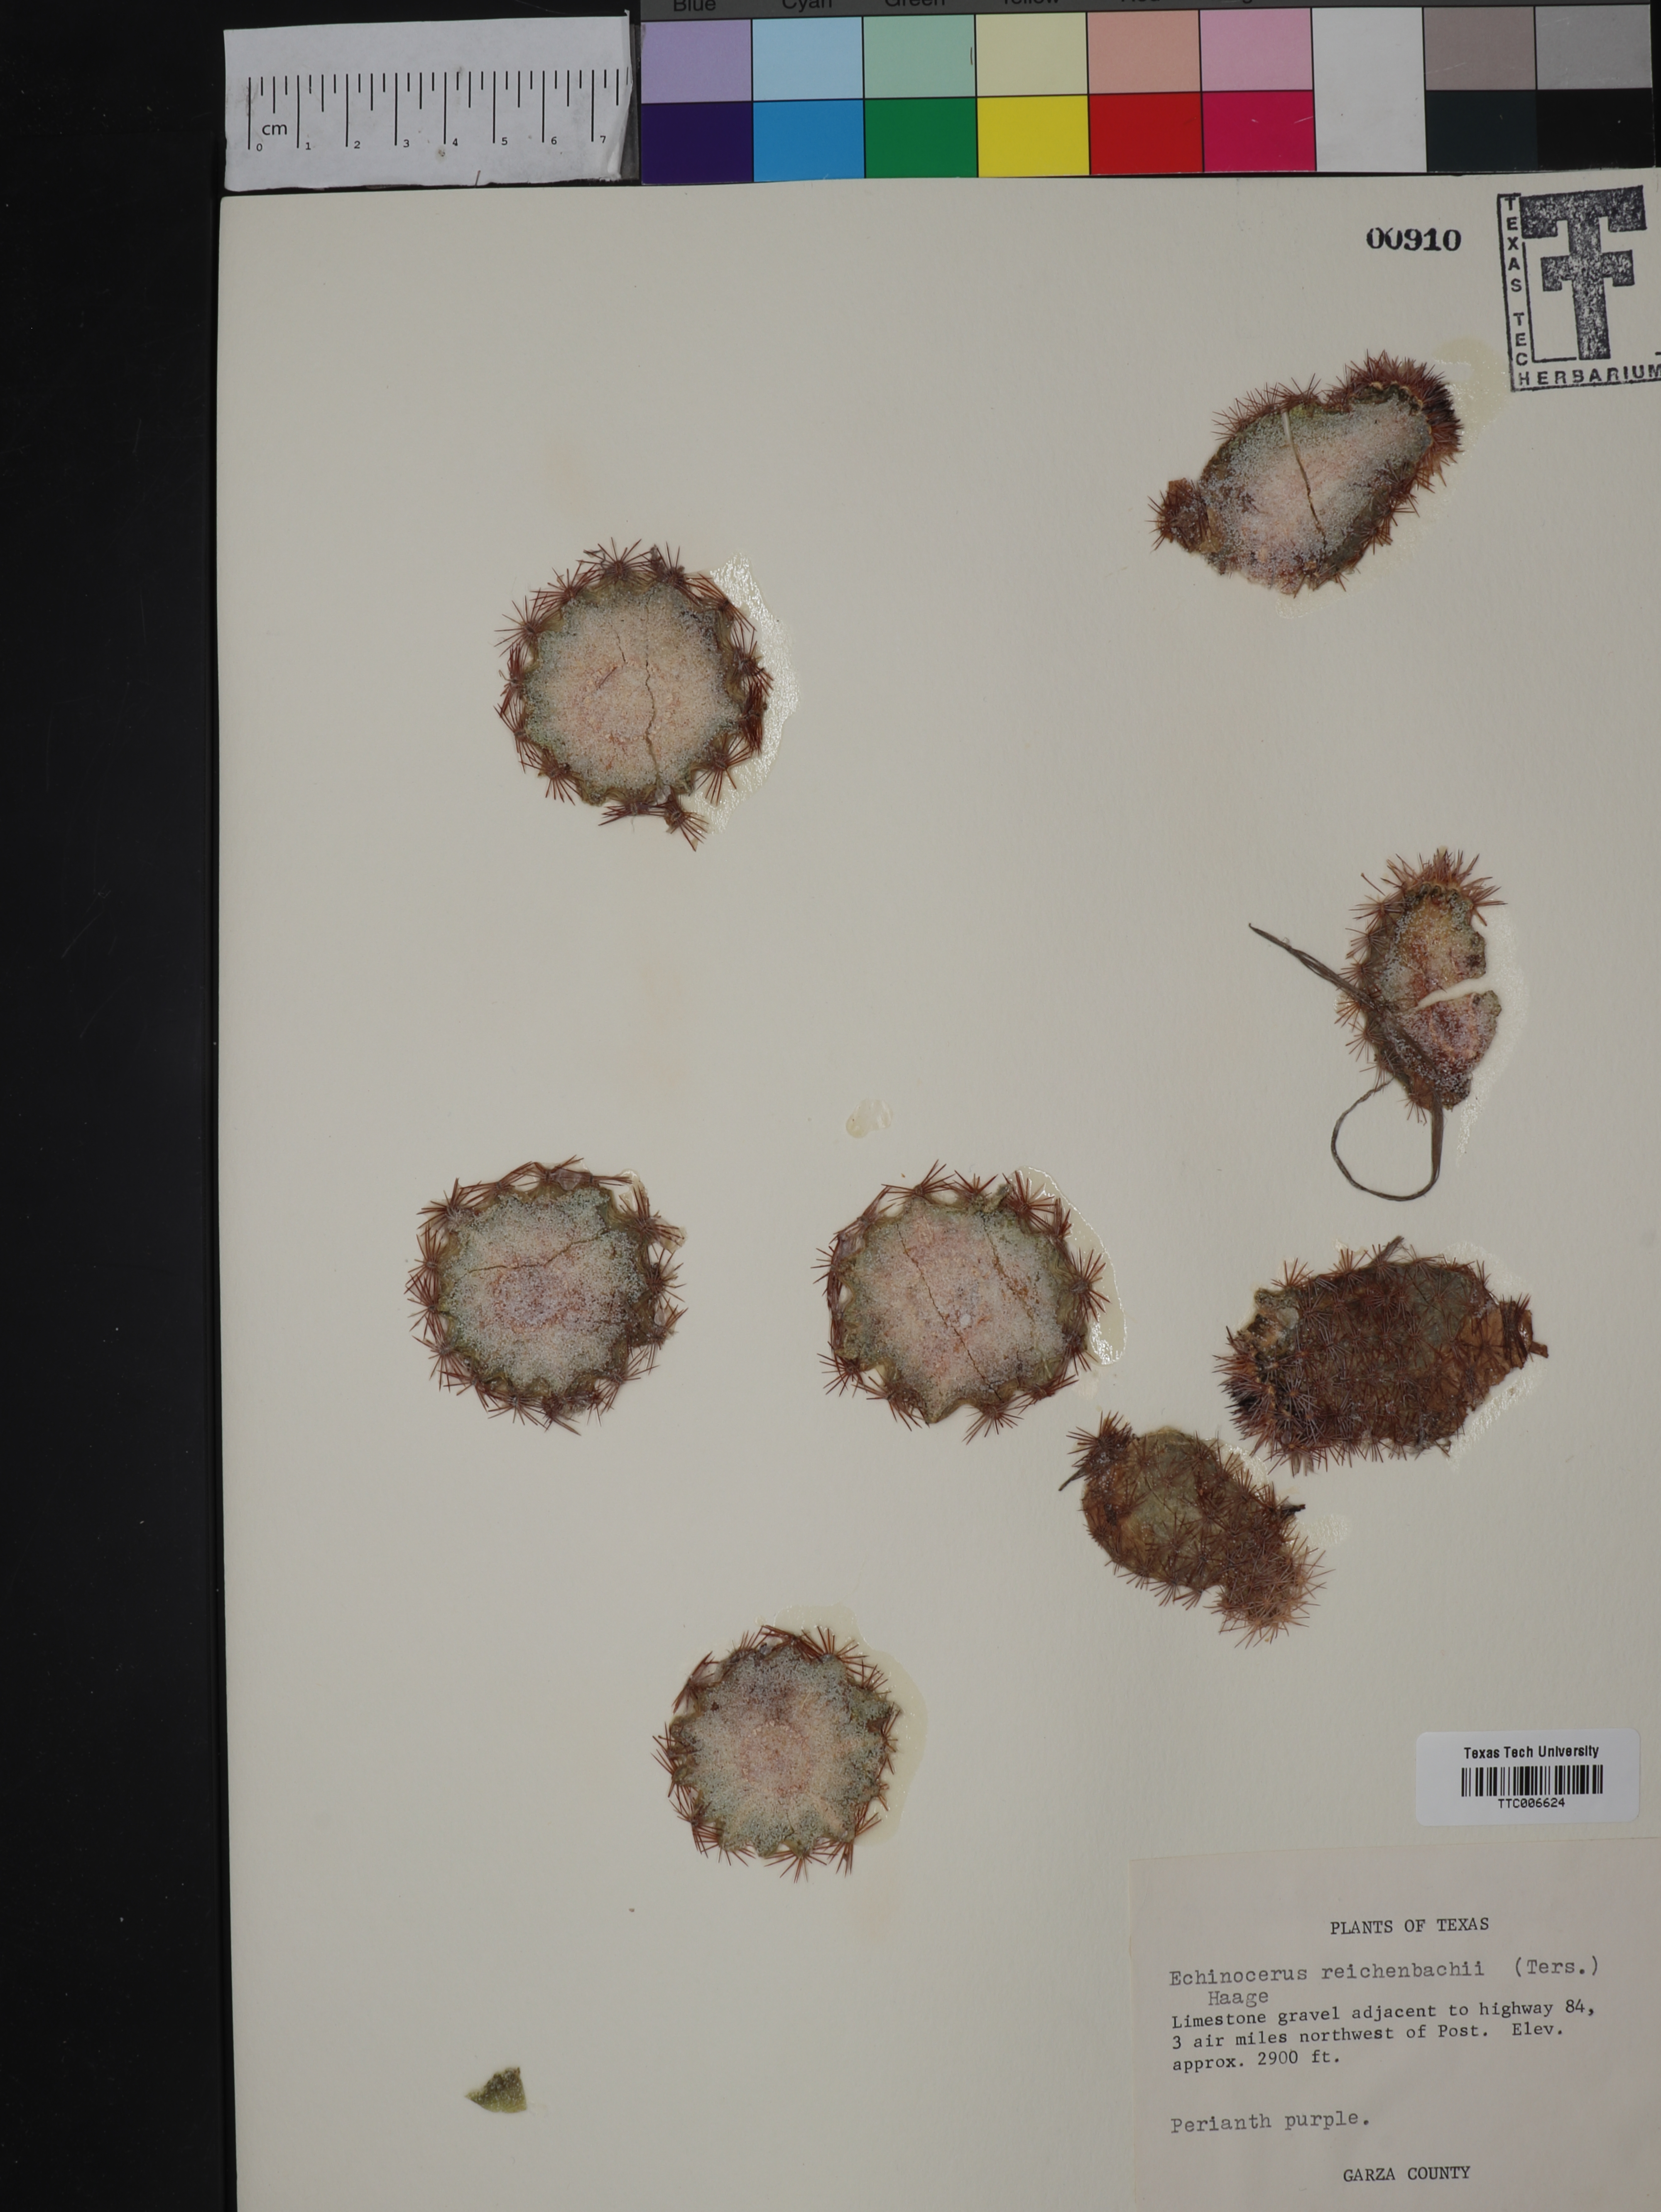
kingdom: Plantae
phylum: Tracheophyta
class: Magnoliopsida
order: Caryophyllales
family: Cactaceae
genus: Echinocereus
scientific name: Echinocereus reichenbachii
